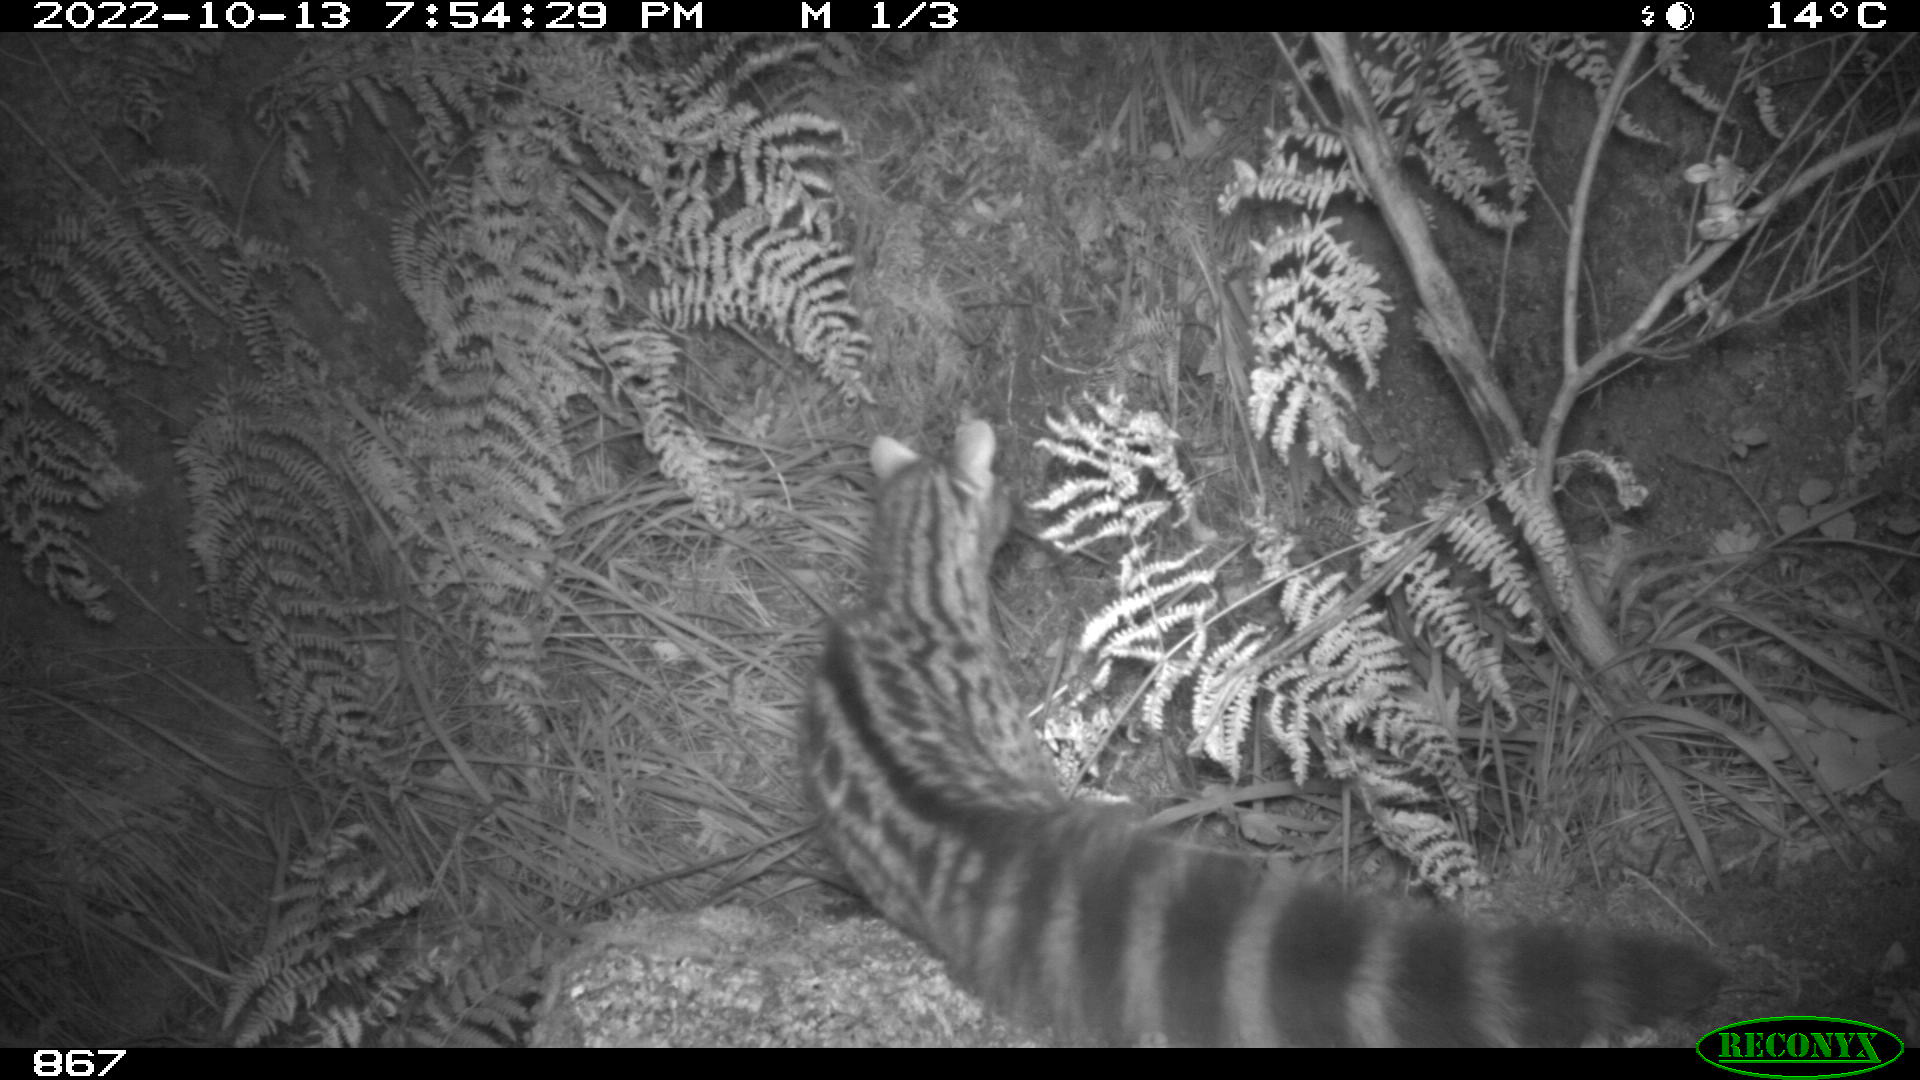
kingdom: Animalia
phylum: Chordata
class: Mammalia
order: Carnivora
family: Viverridae
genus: Genetta
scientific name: Genetta genetta
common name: Common genet
